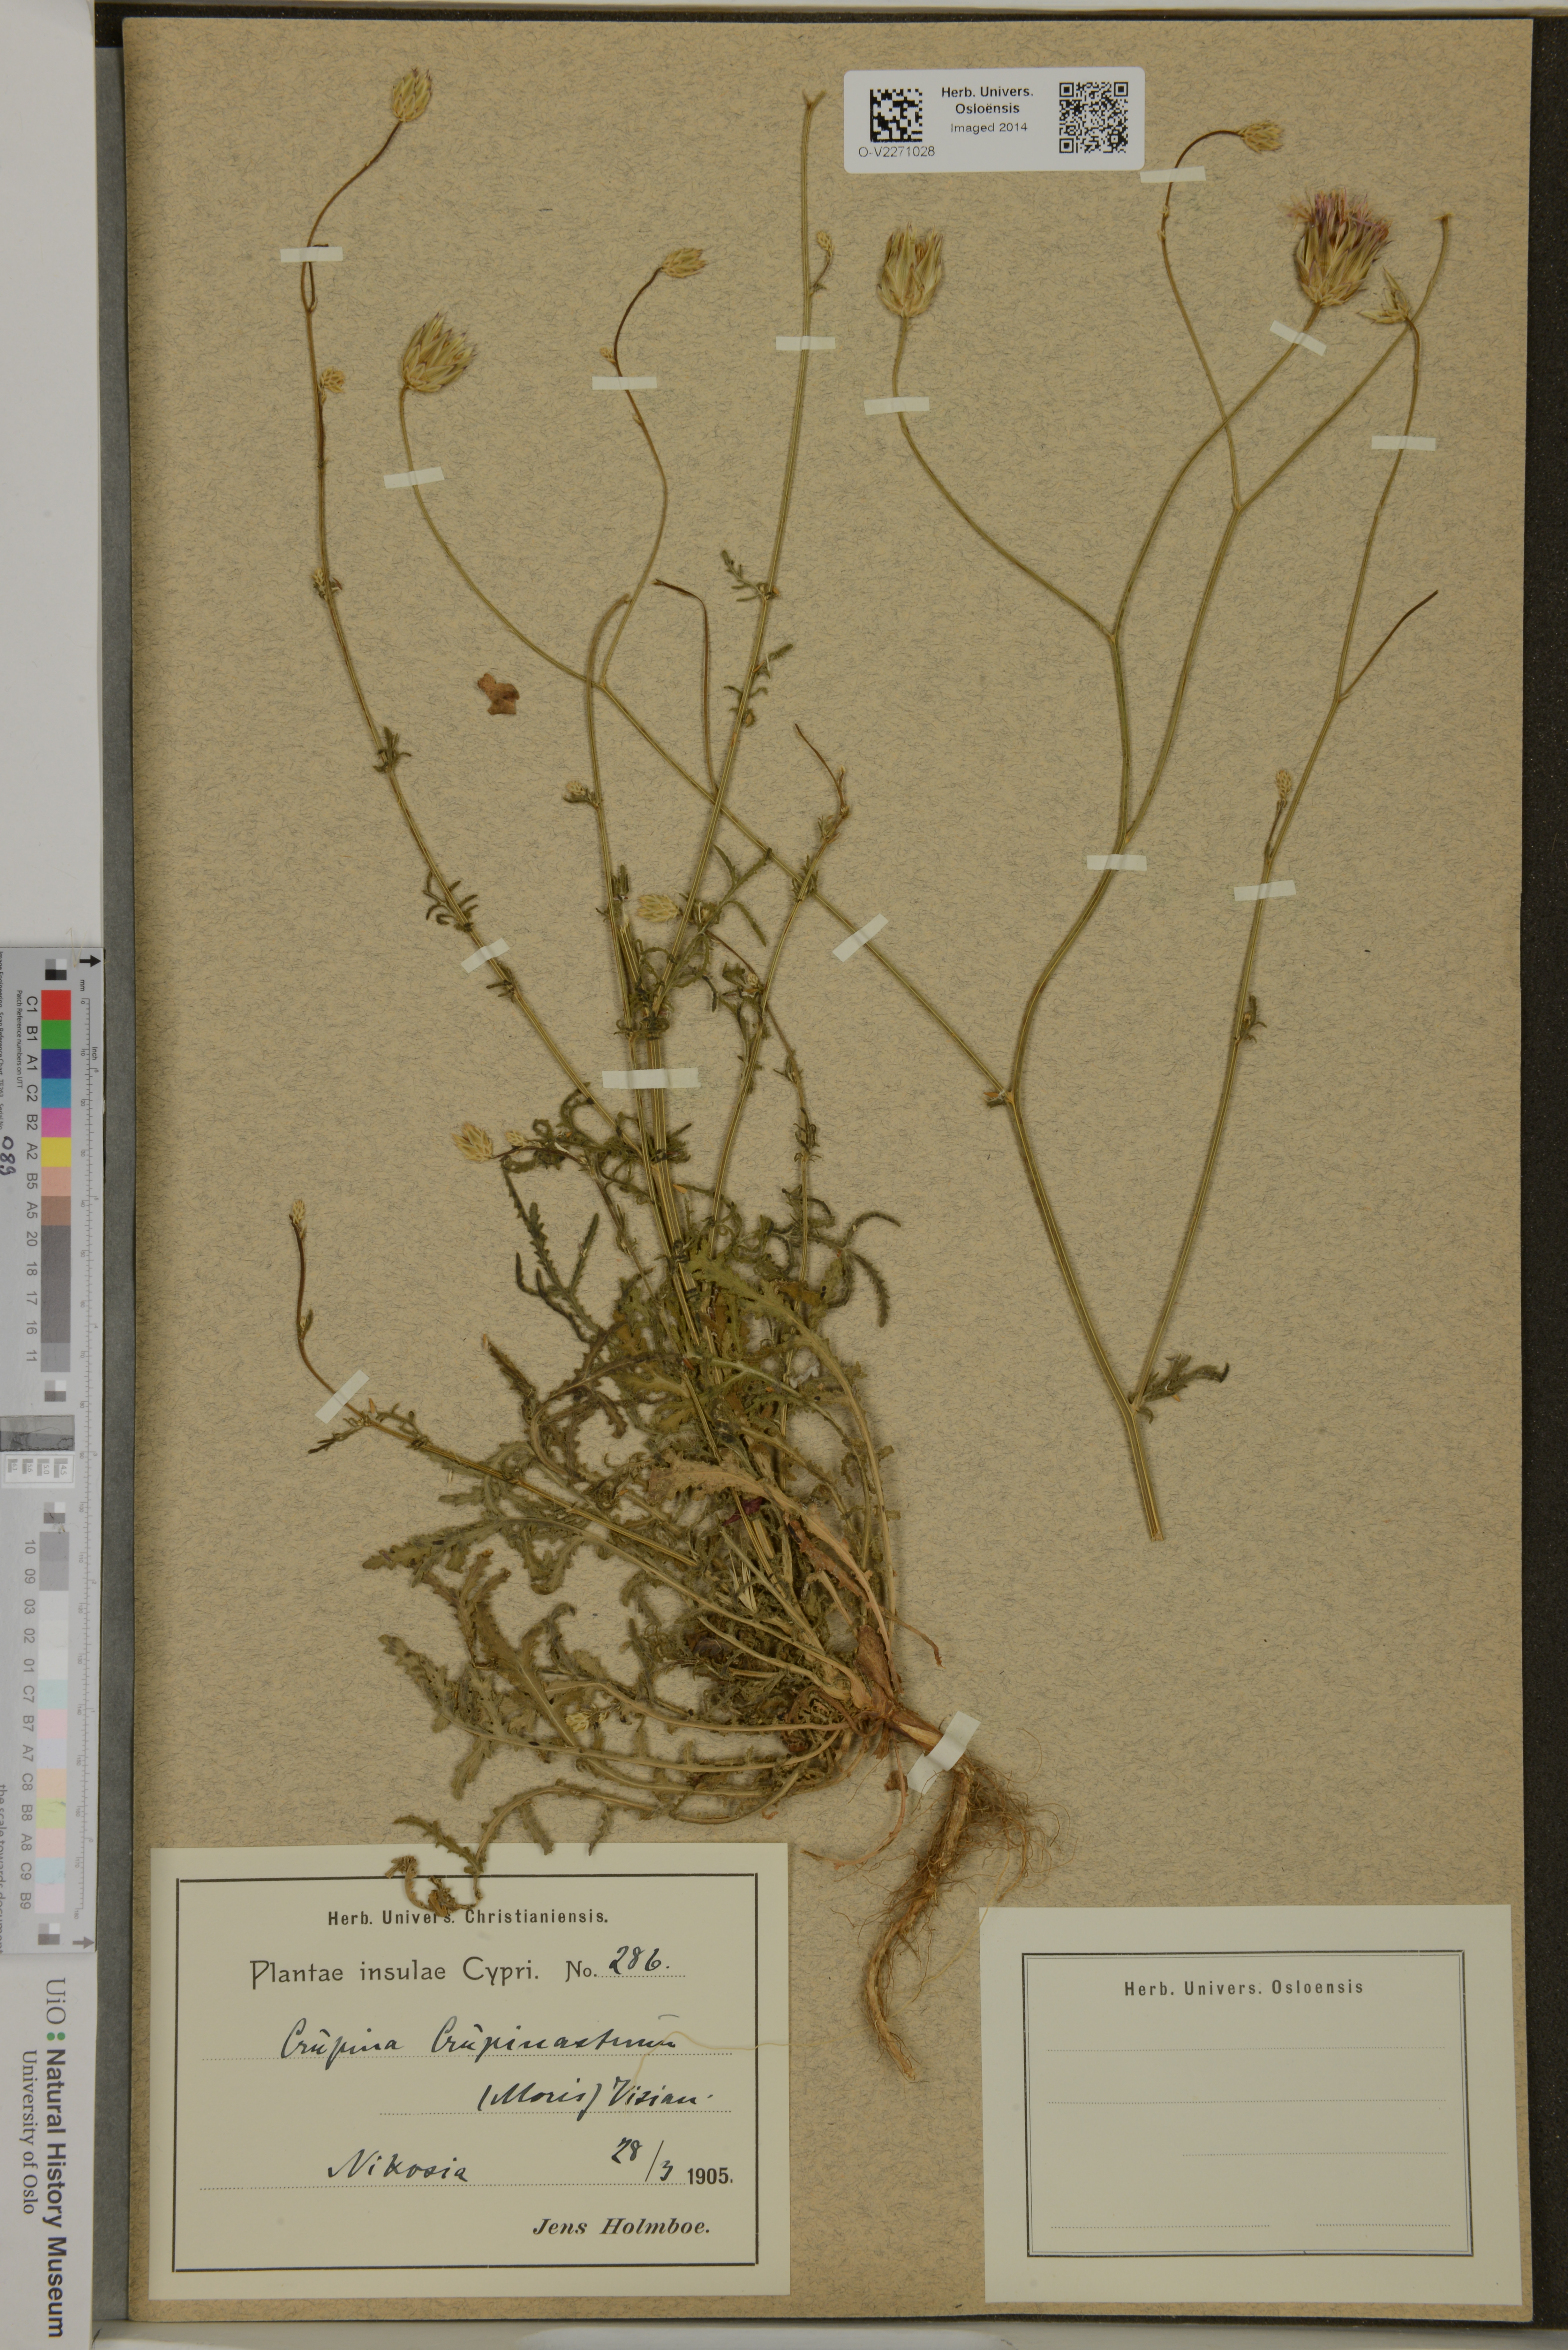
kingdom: Plantae
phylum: Tracheophyta
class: Magnoliopsida
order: Asterales
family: Asteraceae
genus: Crupina
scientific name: Crupina crupinastrum
